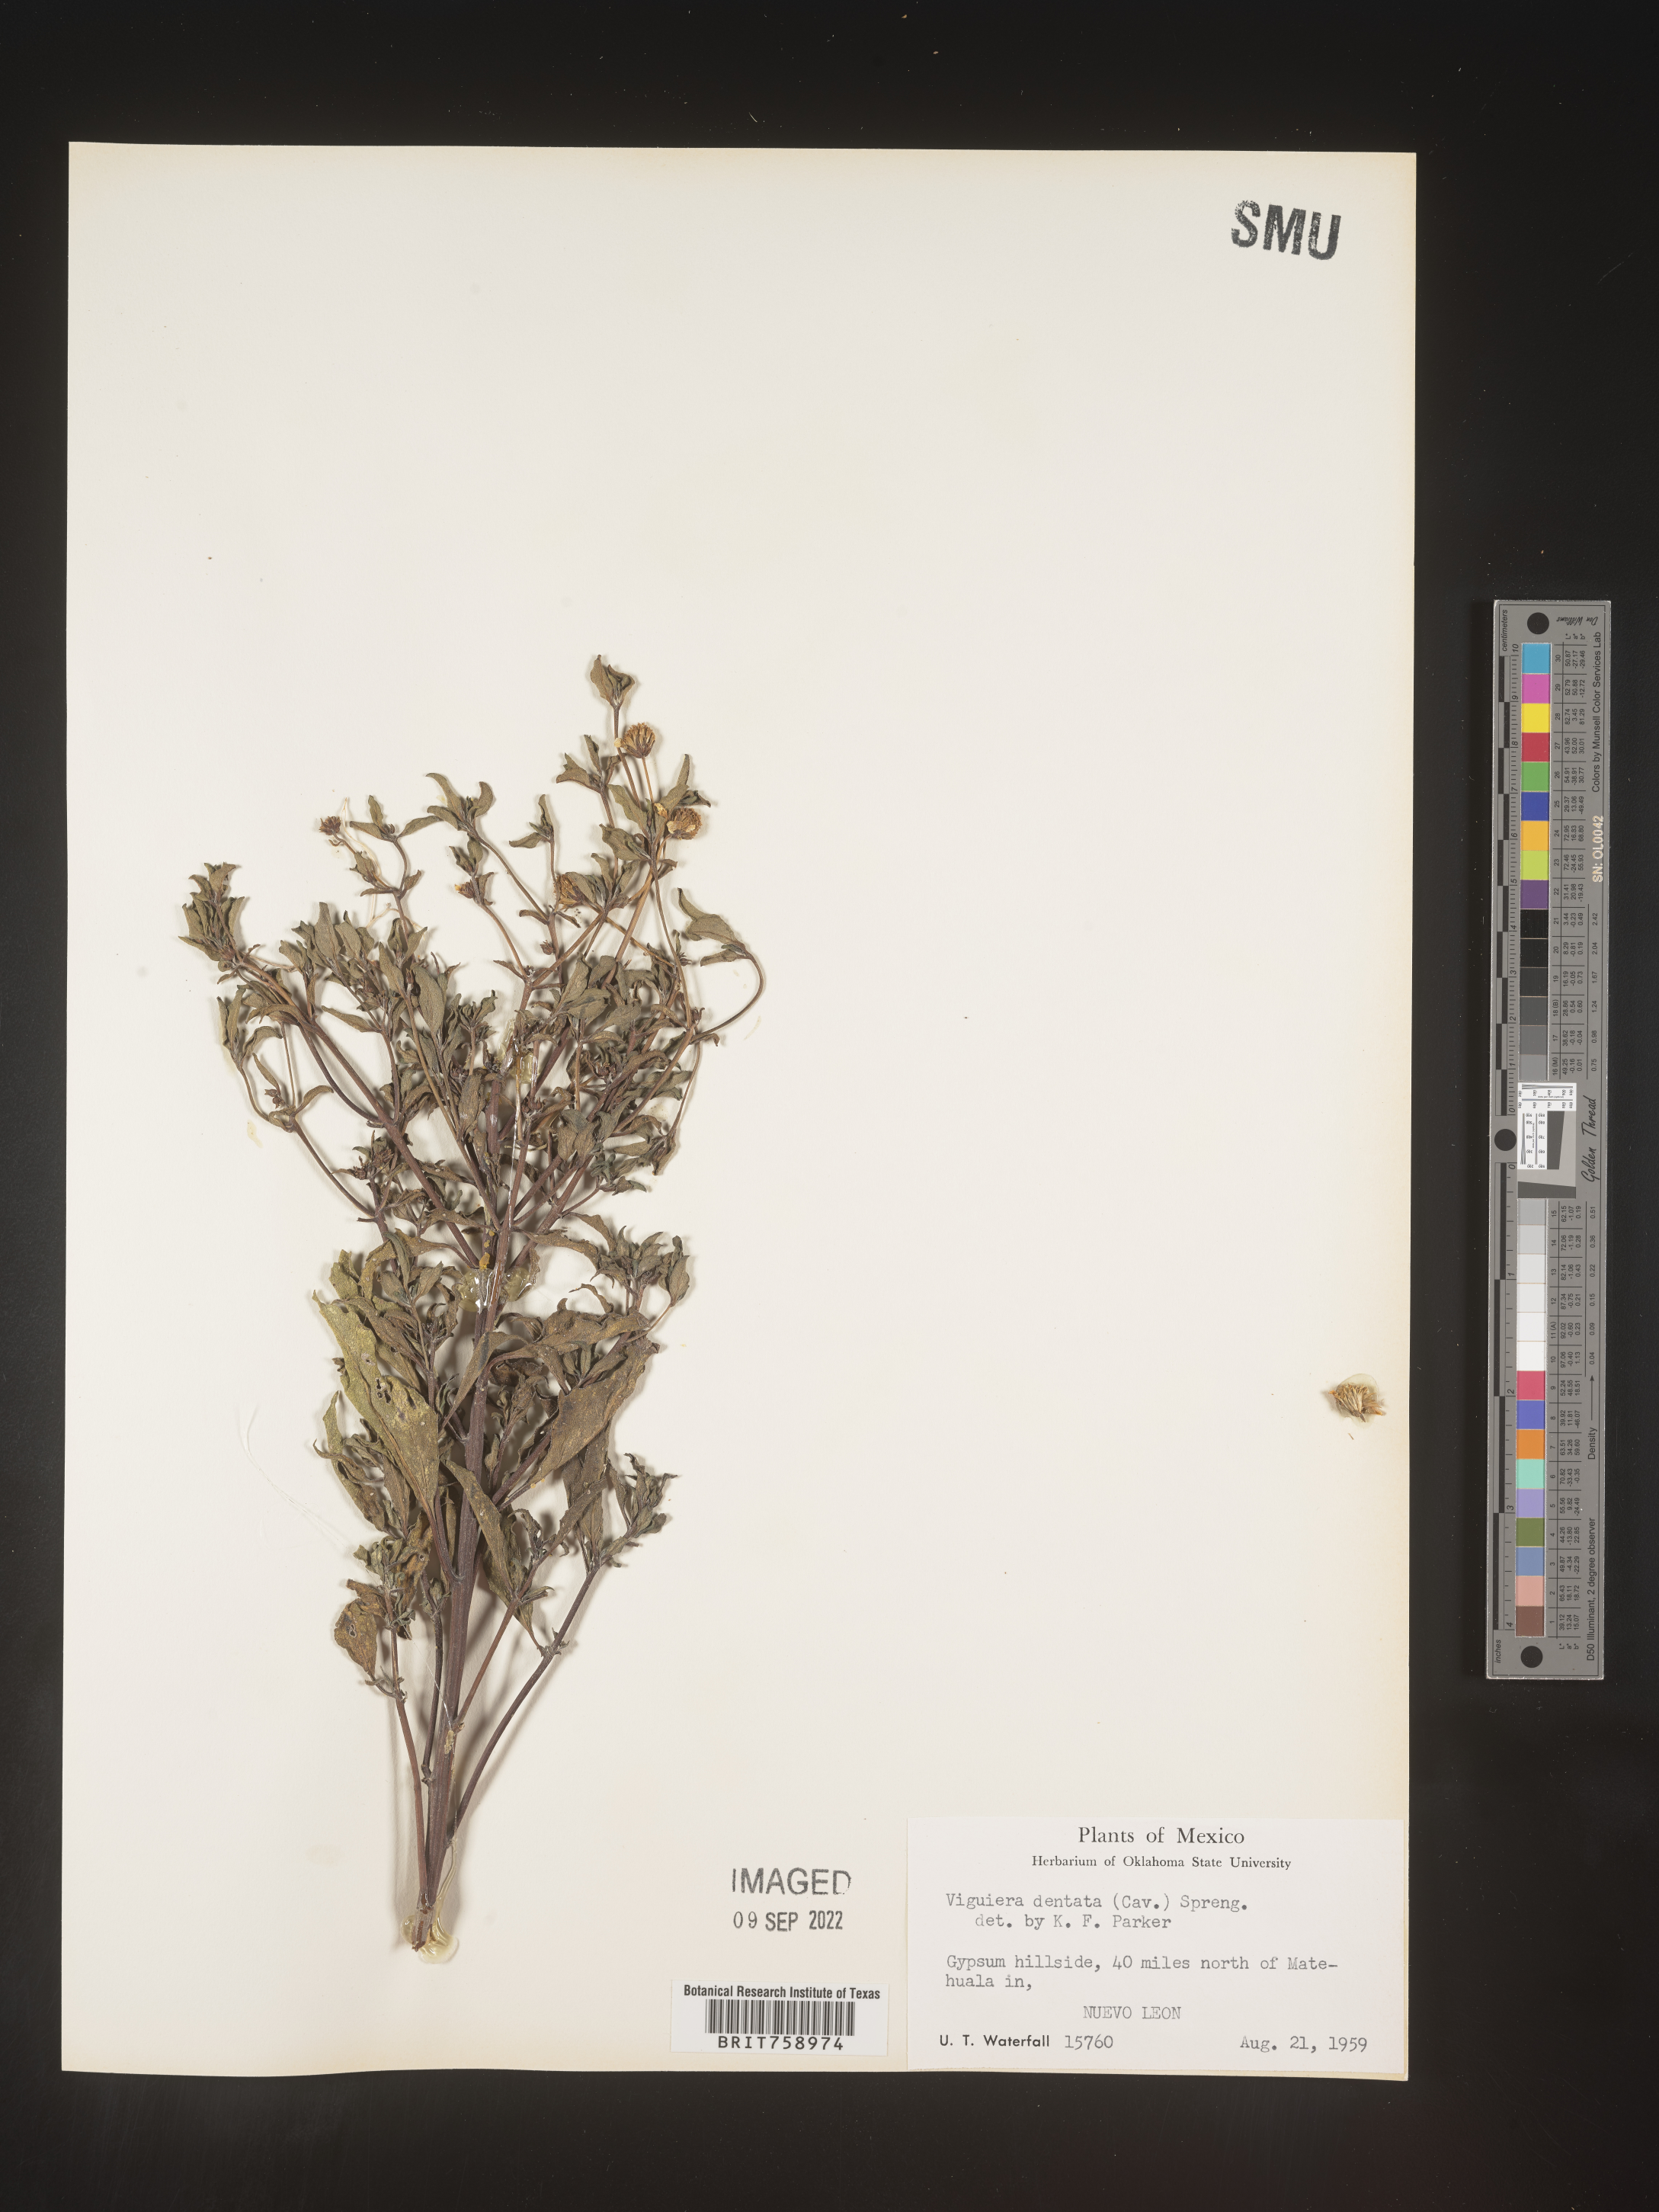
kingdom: Plantae
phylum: Tracheophyta
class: Magnoliopsida
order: Asterales
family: Asteraceae
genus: Viguiera
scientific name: Viguiera
